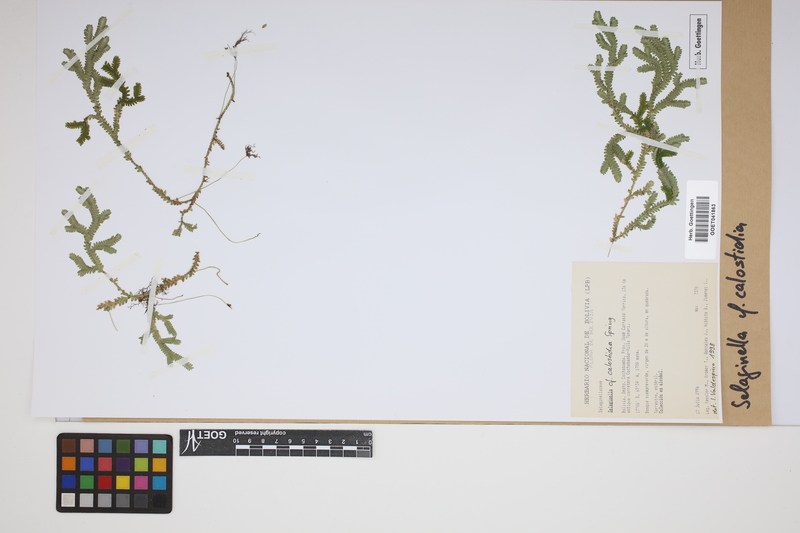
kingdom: Plantae
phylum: Tracheophyta
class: Lycopodiopsida
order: Selaginellales
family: Selaginellaceae
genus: Selaginella
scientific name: Selaginella calosticha
